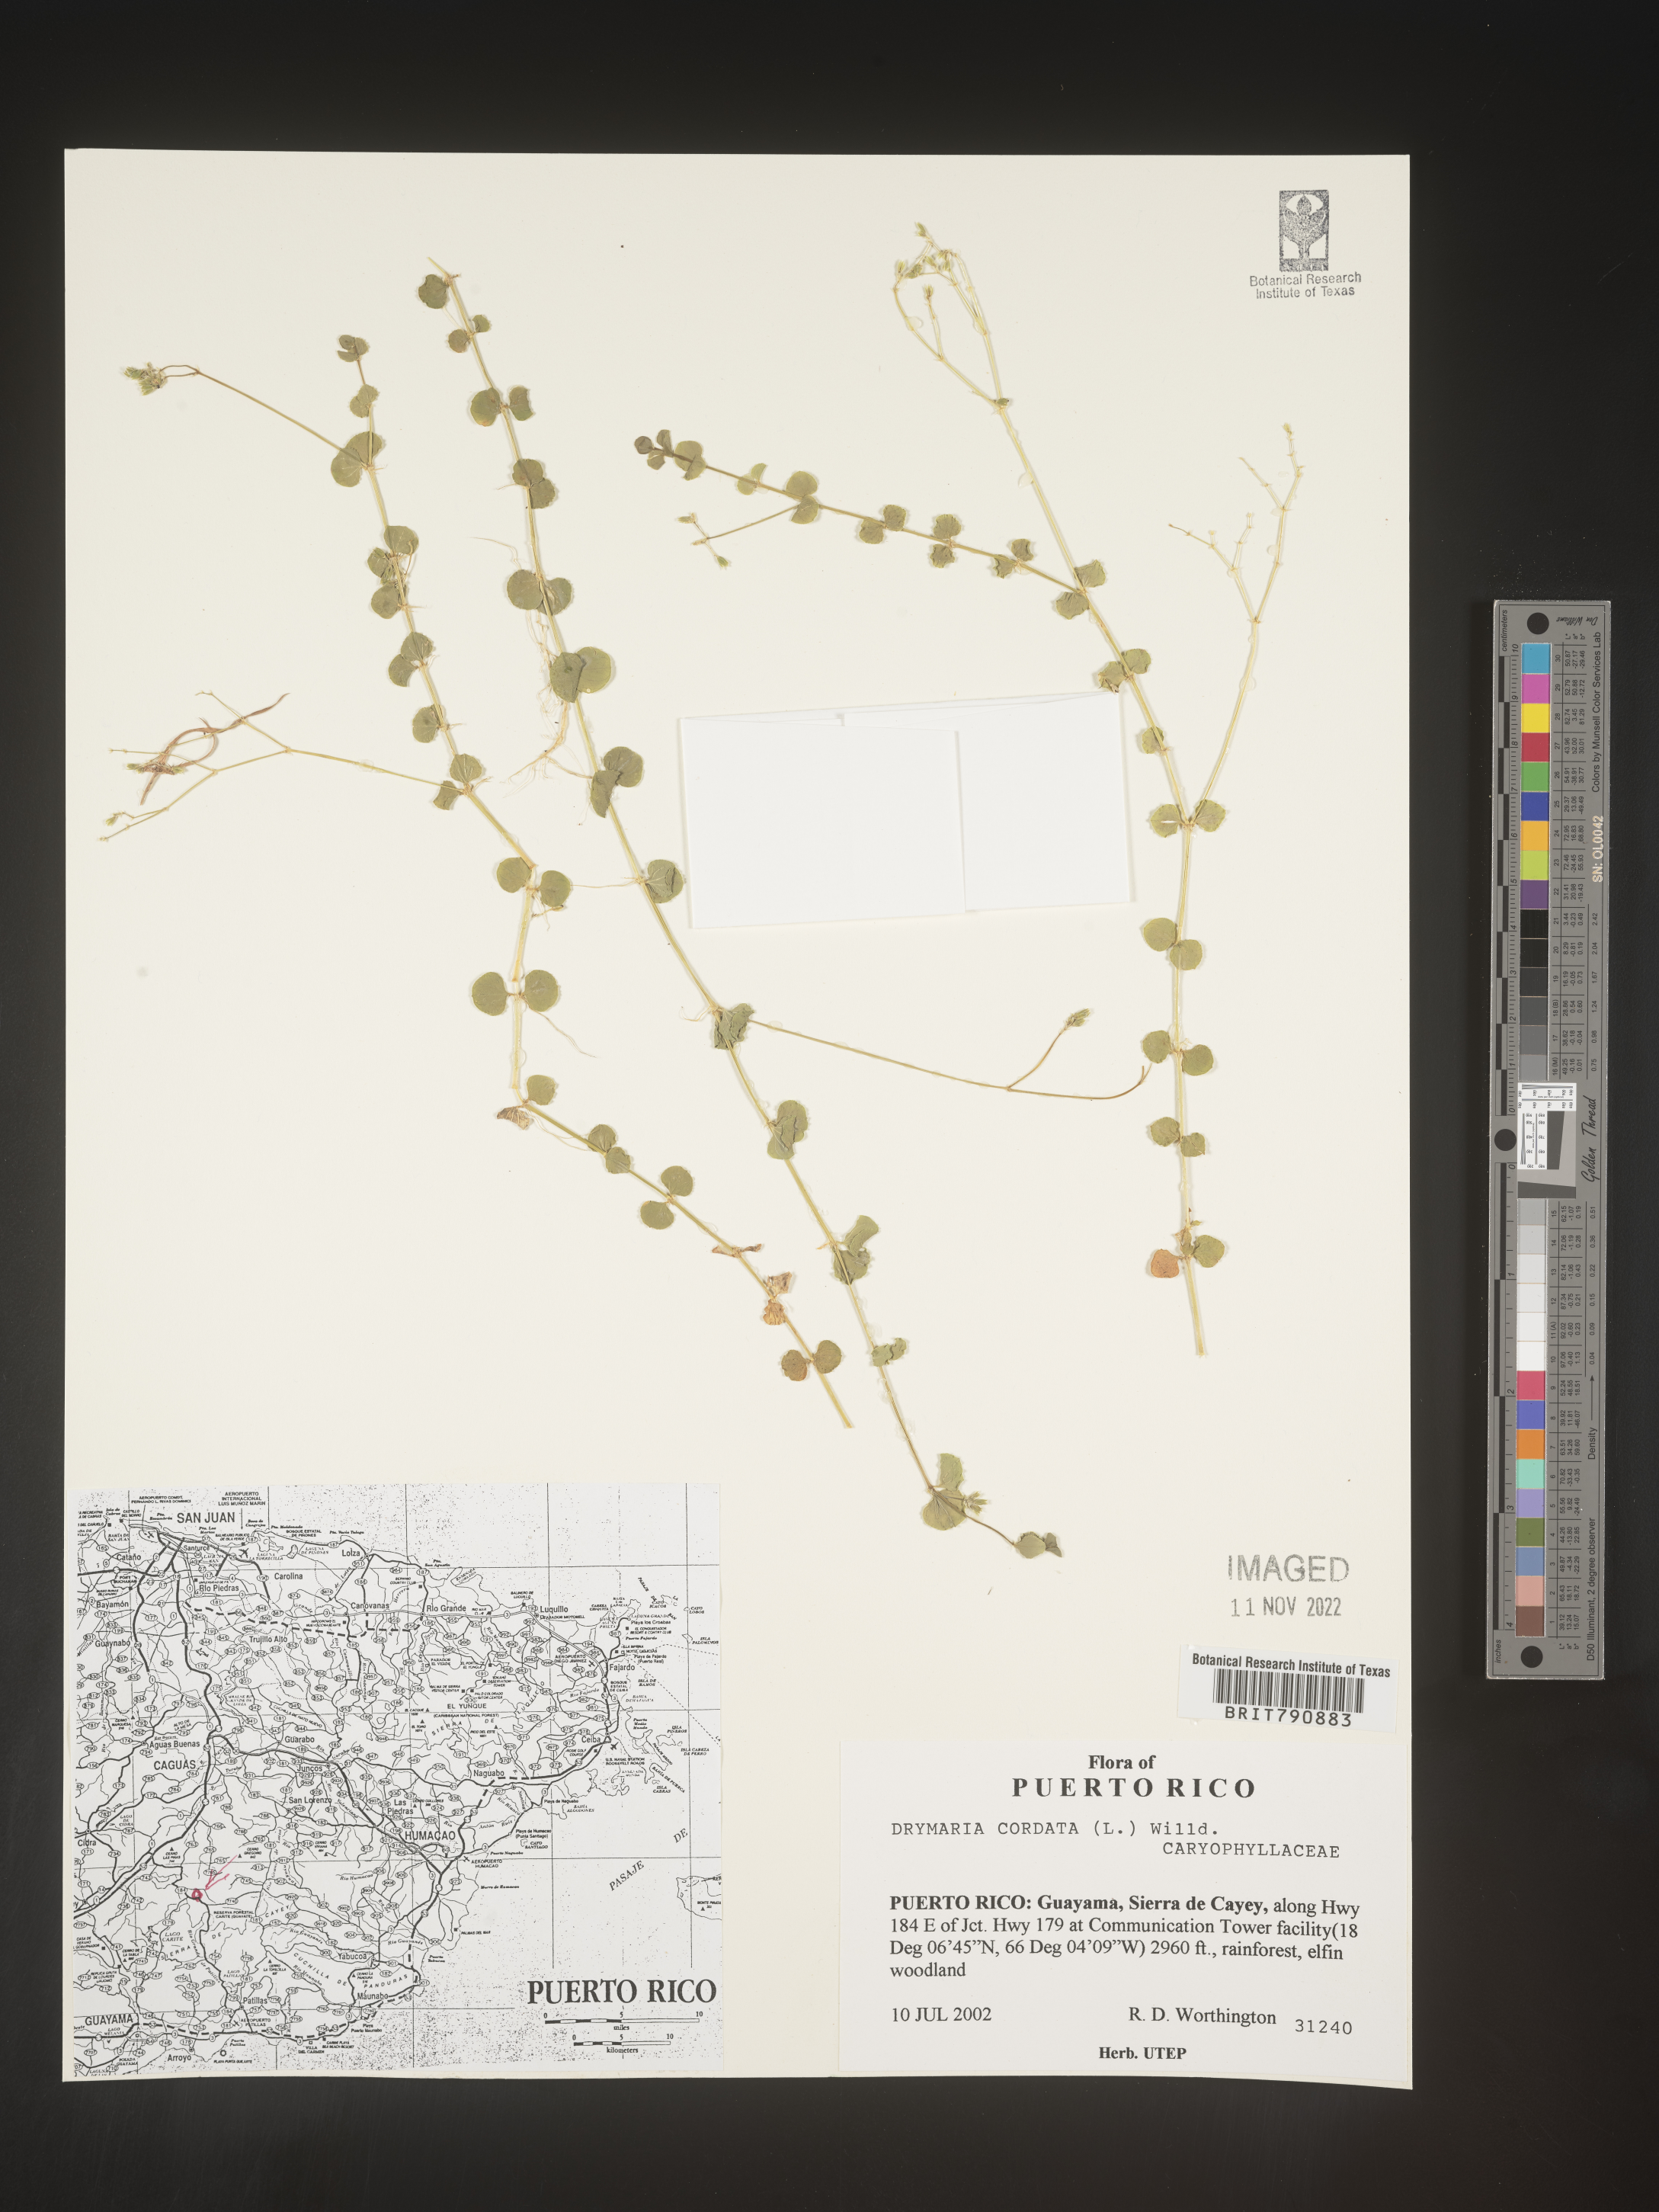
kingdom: Plantae
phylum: Tracheophyta
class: Magnoliopsida
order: Caryophyllales
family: Caryophyllaceae
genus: Drymaria
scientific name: Drymaria
